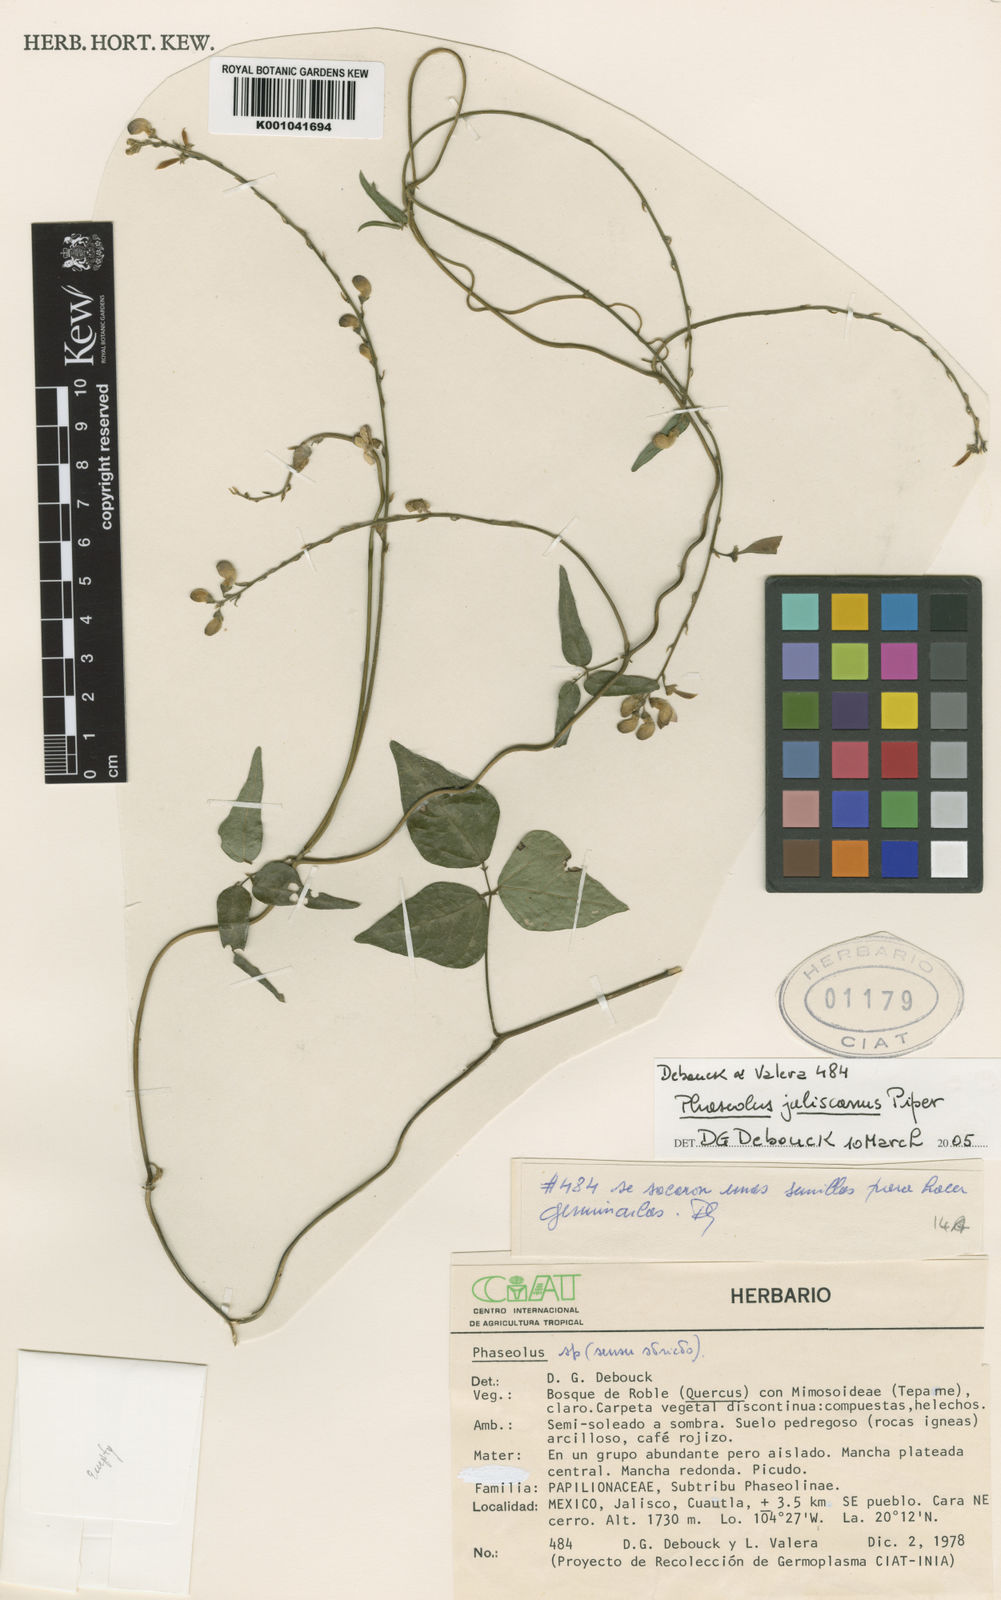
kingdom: Plantae
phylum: Tracheophyta
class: Magnoliopsida
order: Fabales
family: Fabaceae
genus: Phaseolus
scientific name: Phaseolus jaliscanus
